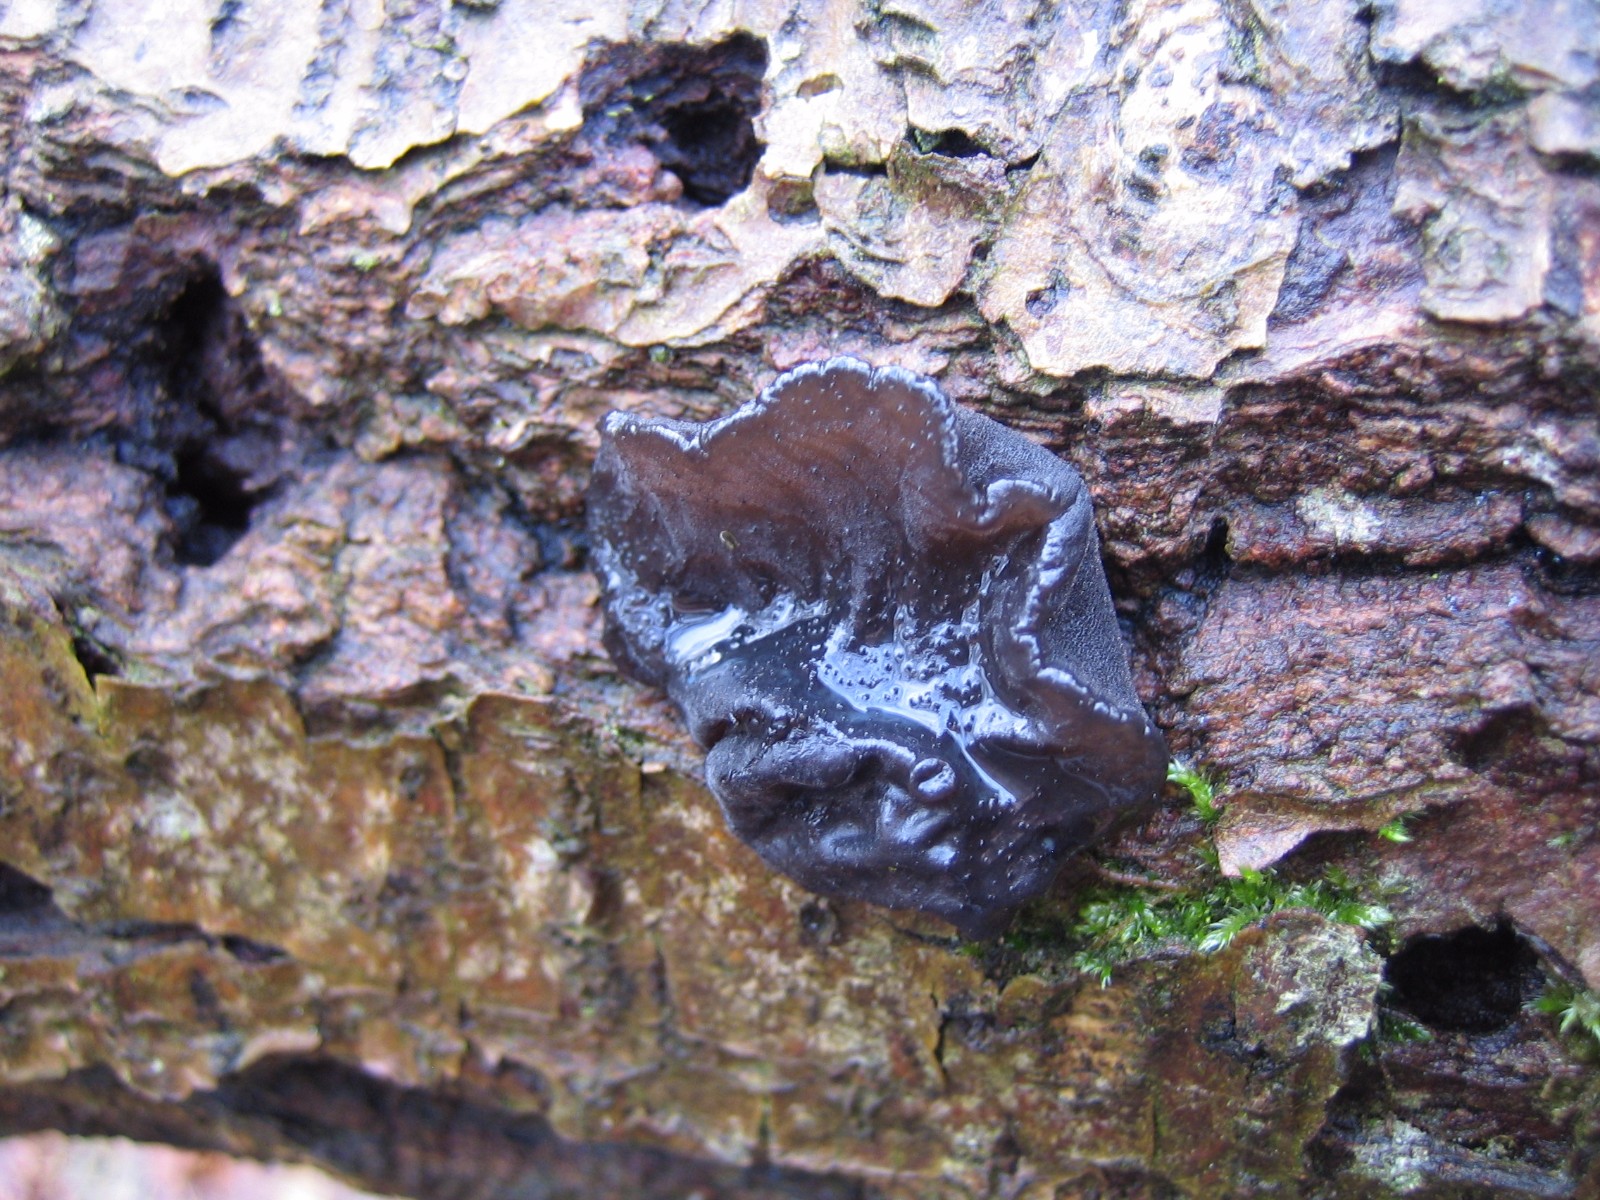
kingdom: Fungi
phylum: Basidiomycota
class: Agaricomycetes
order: Auriculariales
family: Auriculariaceae
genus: Exidia
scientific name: Exidia glandulosa
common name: ege-bævretop
